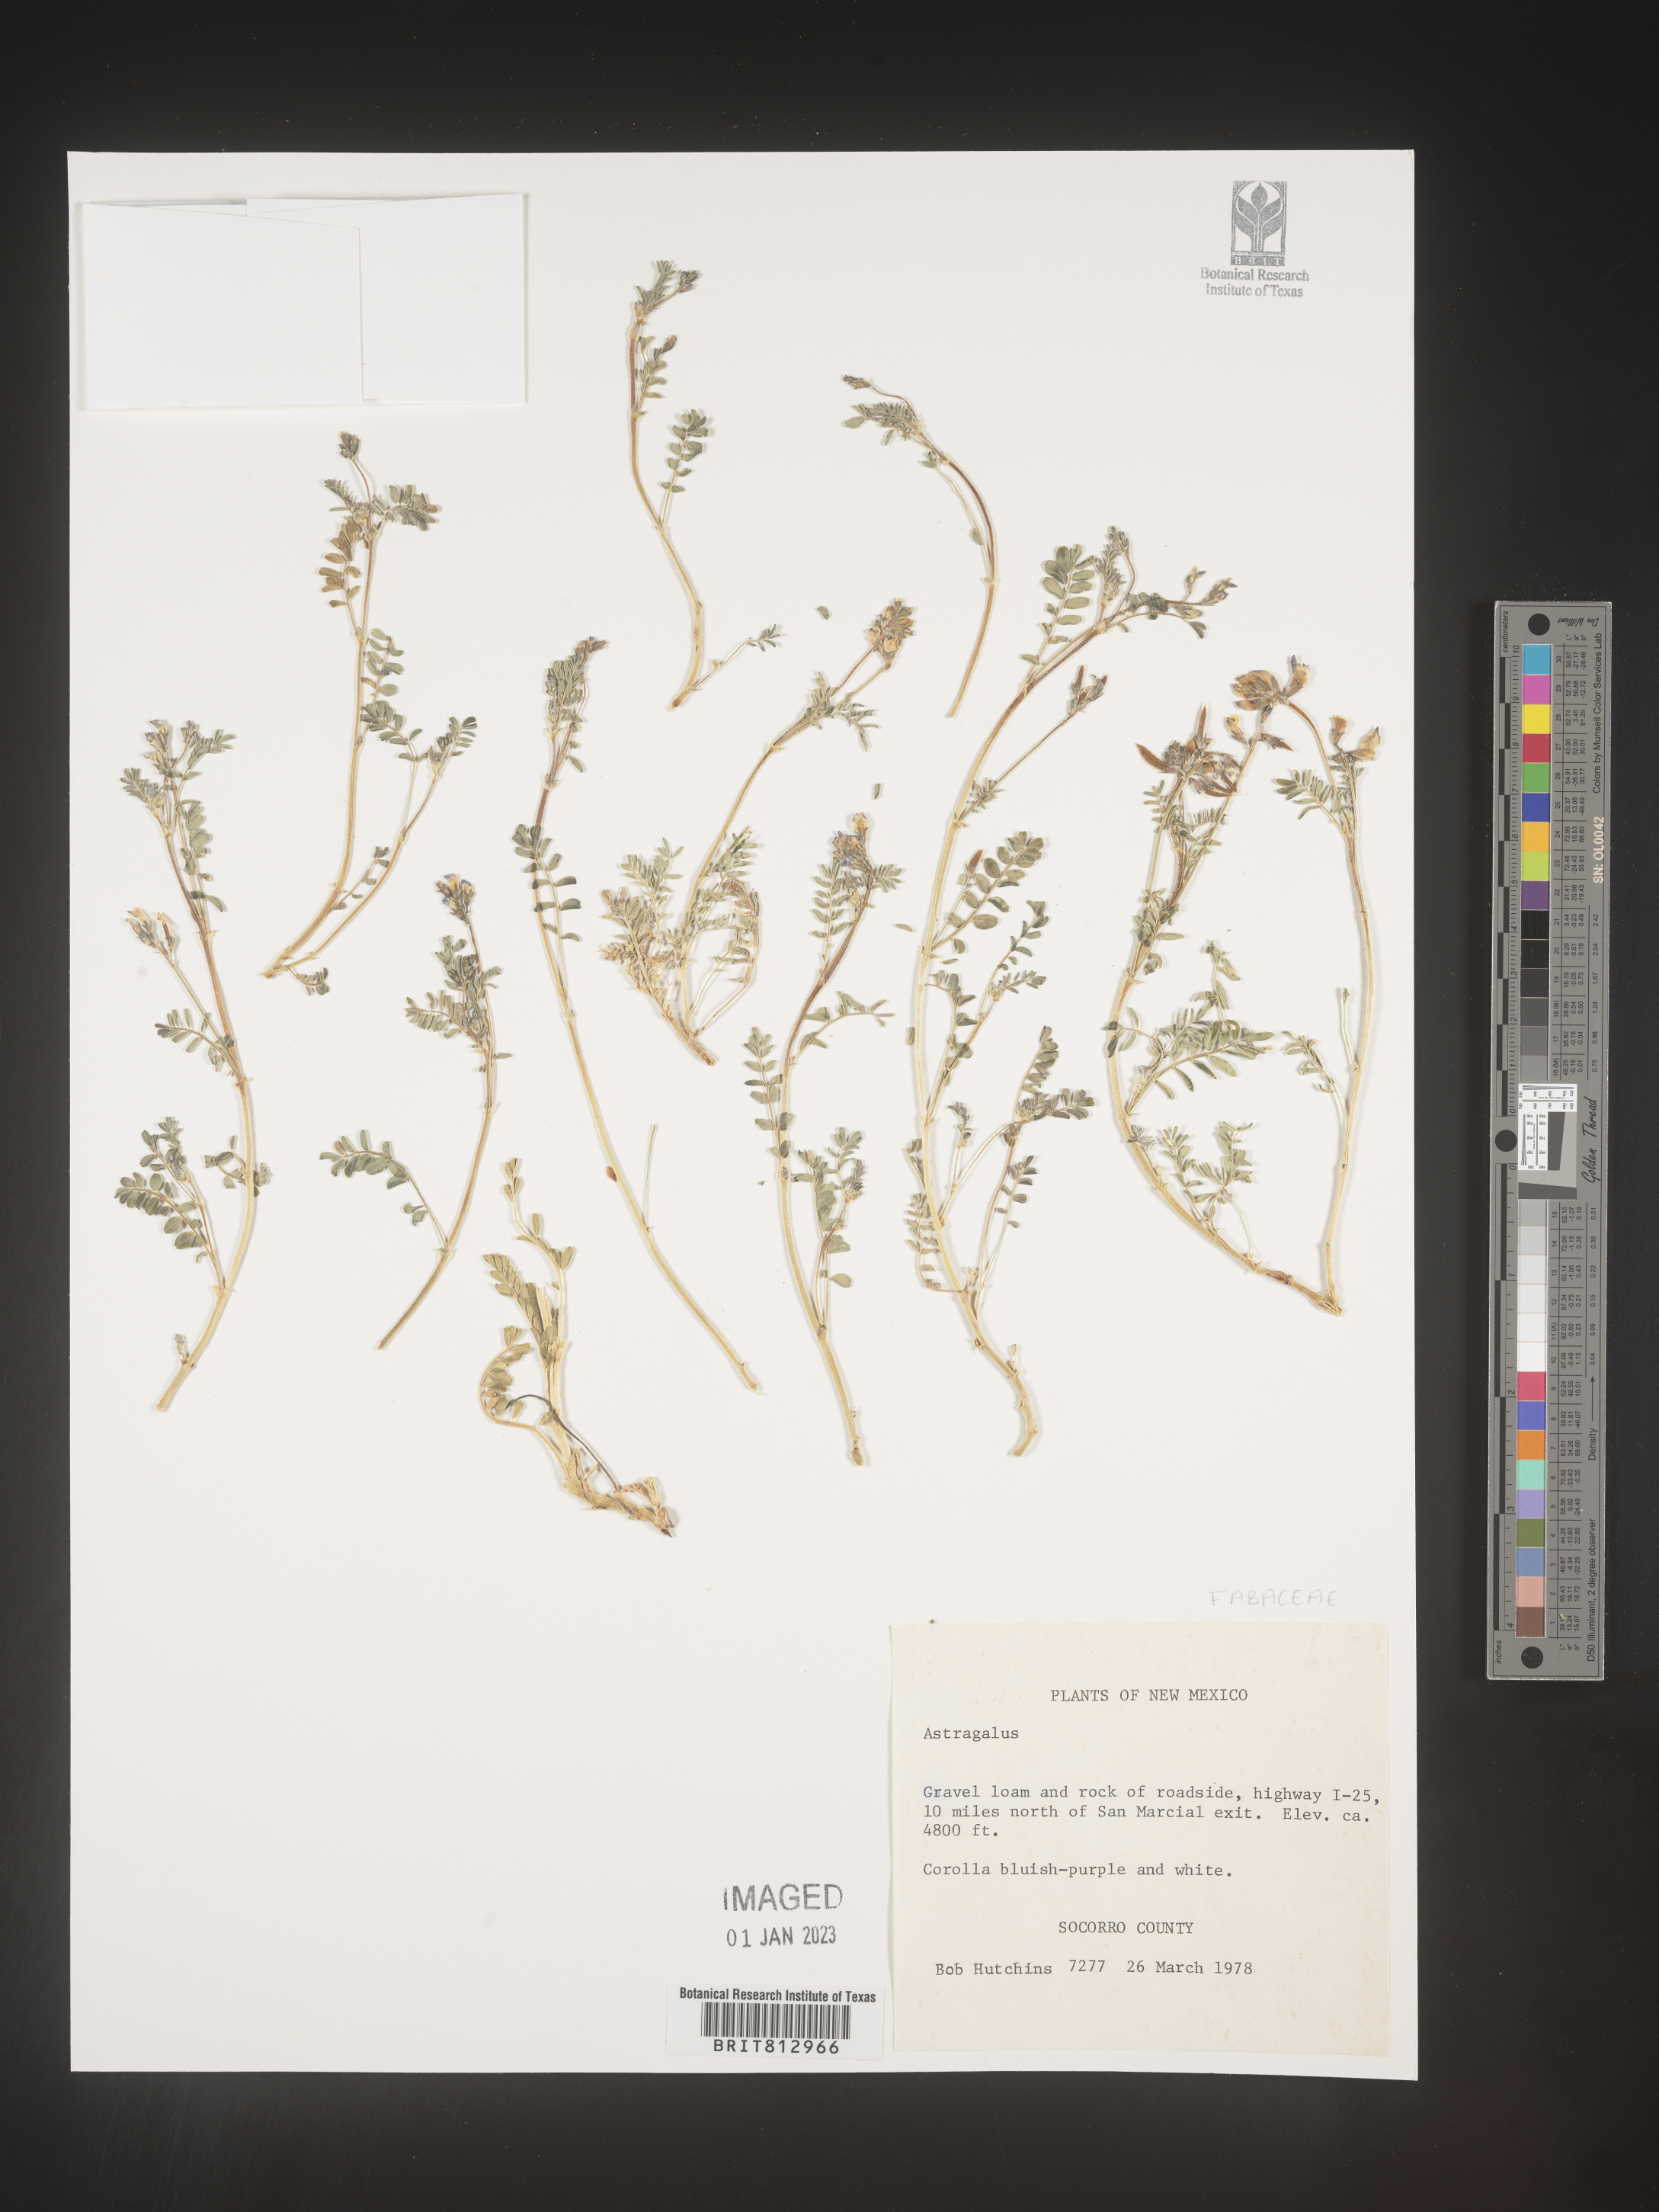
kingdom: Plantae
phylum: Tracheophyta
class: Magnoliopsida
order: Fabales
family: Fabaceae
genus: Astragalus
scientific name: Astragalus
